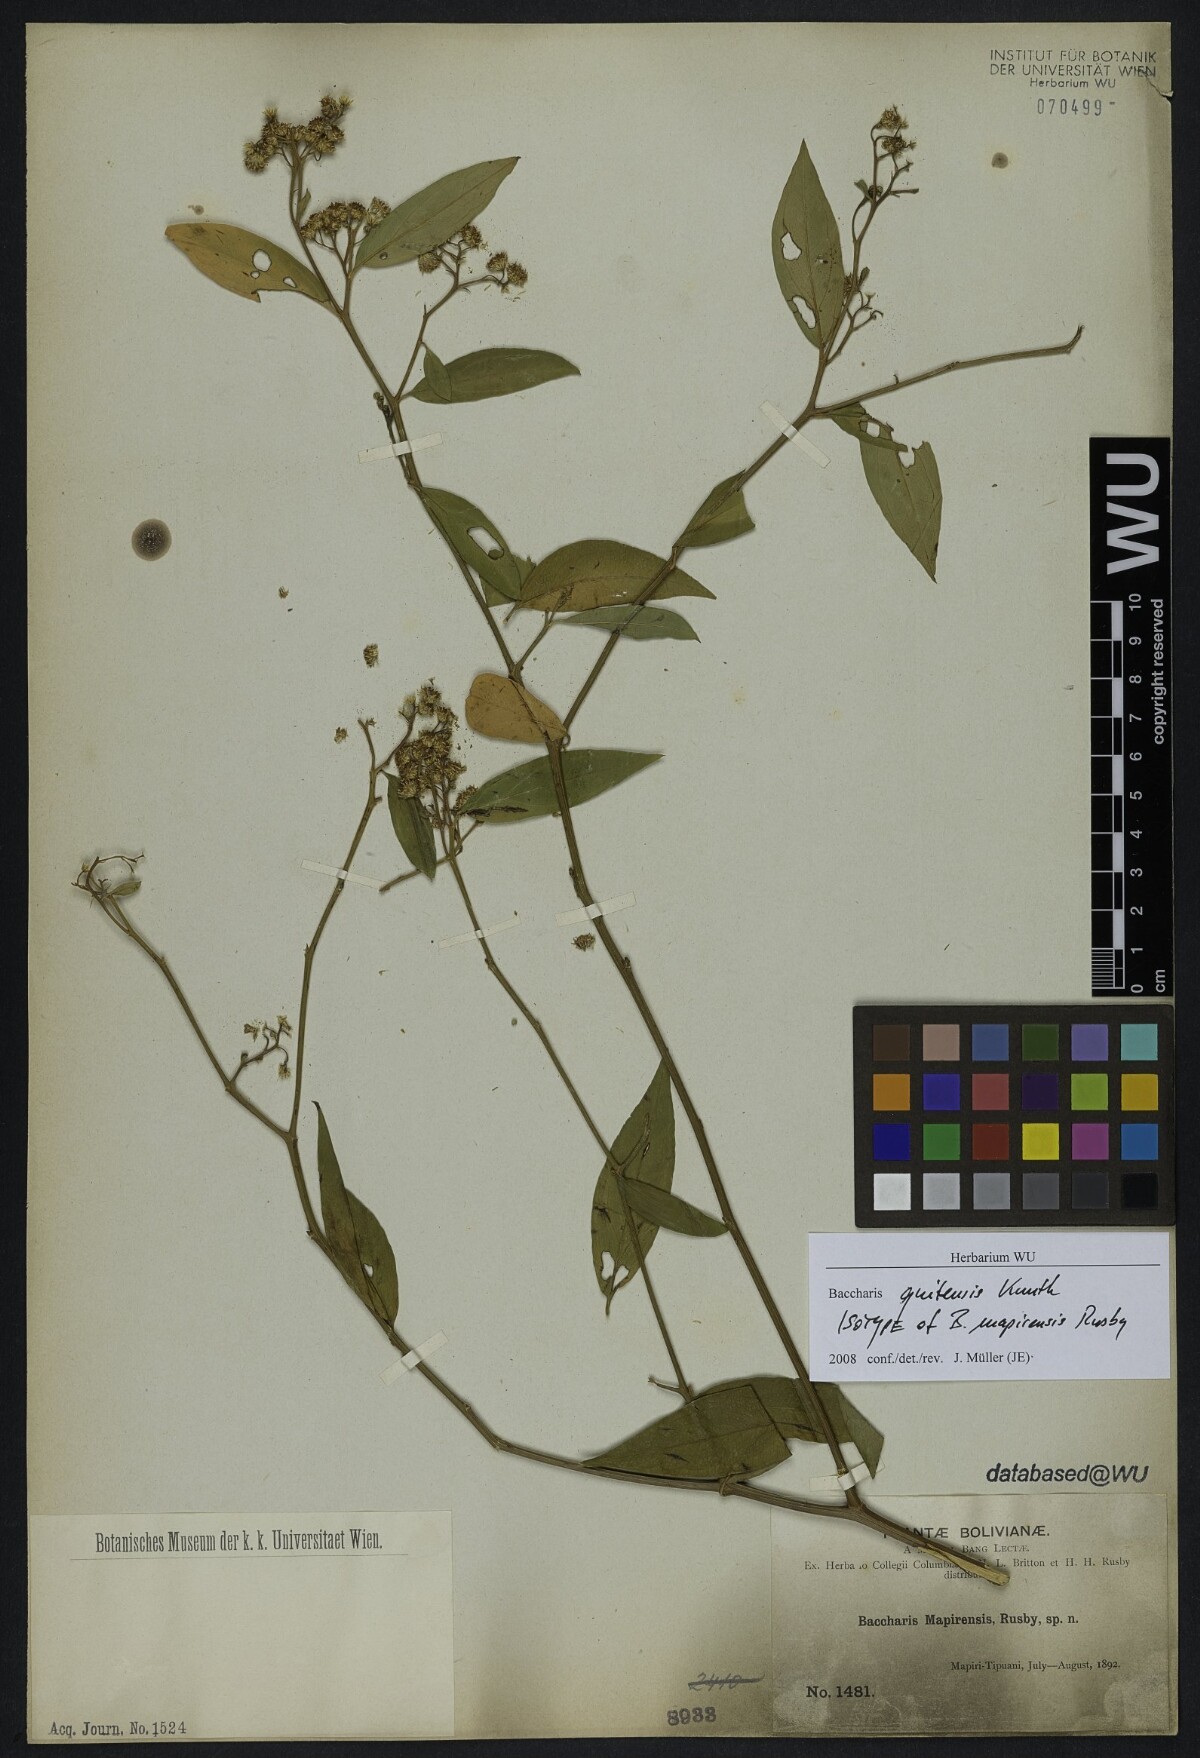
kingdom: Plantae
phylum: Tracheophyta
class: Magnoliopsida
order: Asterales
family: Asteraceae
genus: Baccharis
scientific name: Baccharis quitensis
